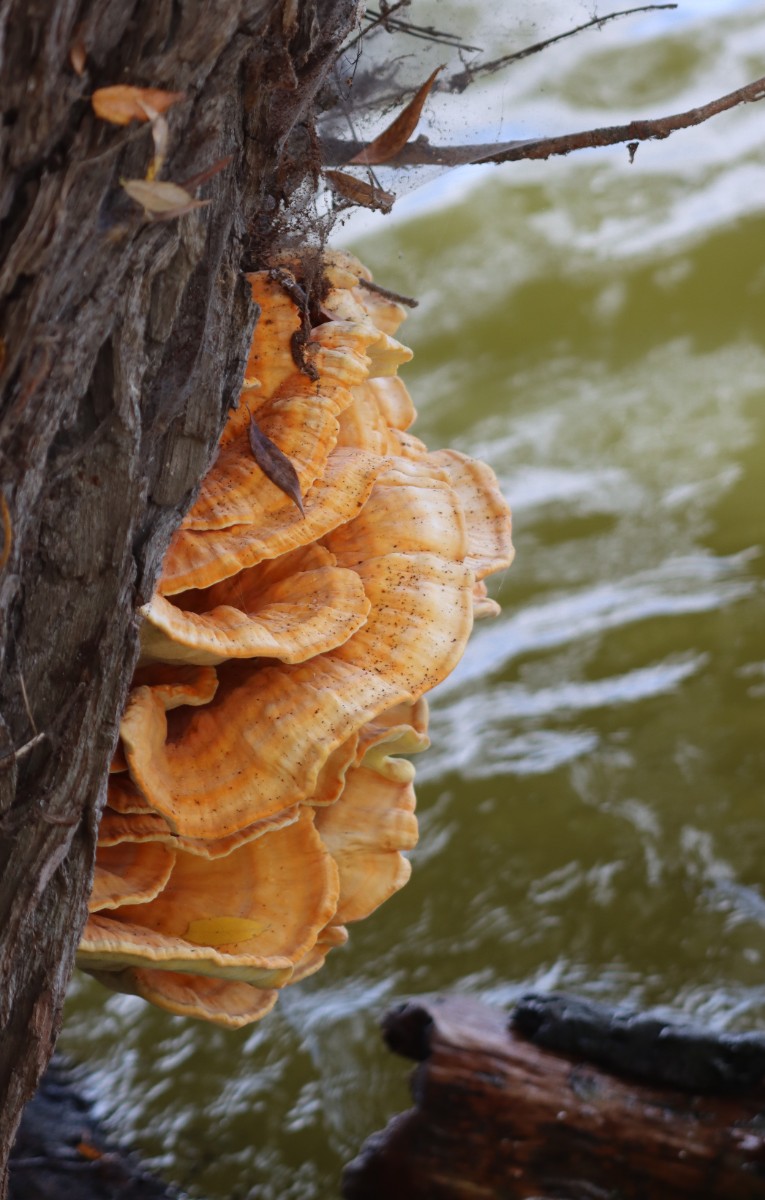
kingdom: Fungi
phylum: Basidiomycota
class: Agaricomycetes
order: Polyporales
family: Laetiporaceae
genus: Laetiporus
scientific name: Laetiporus sulphureus
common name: svovlporesvamp
